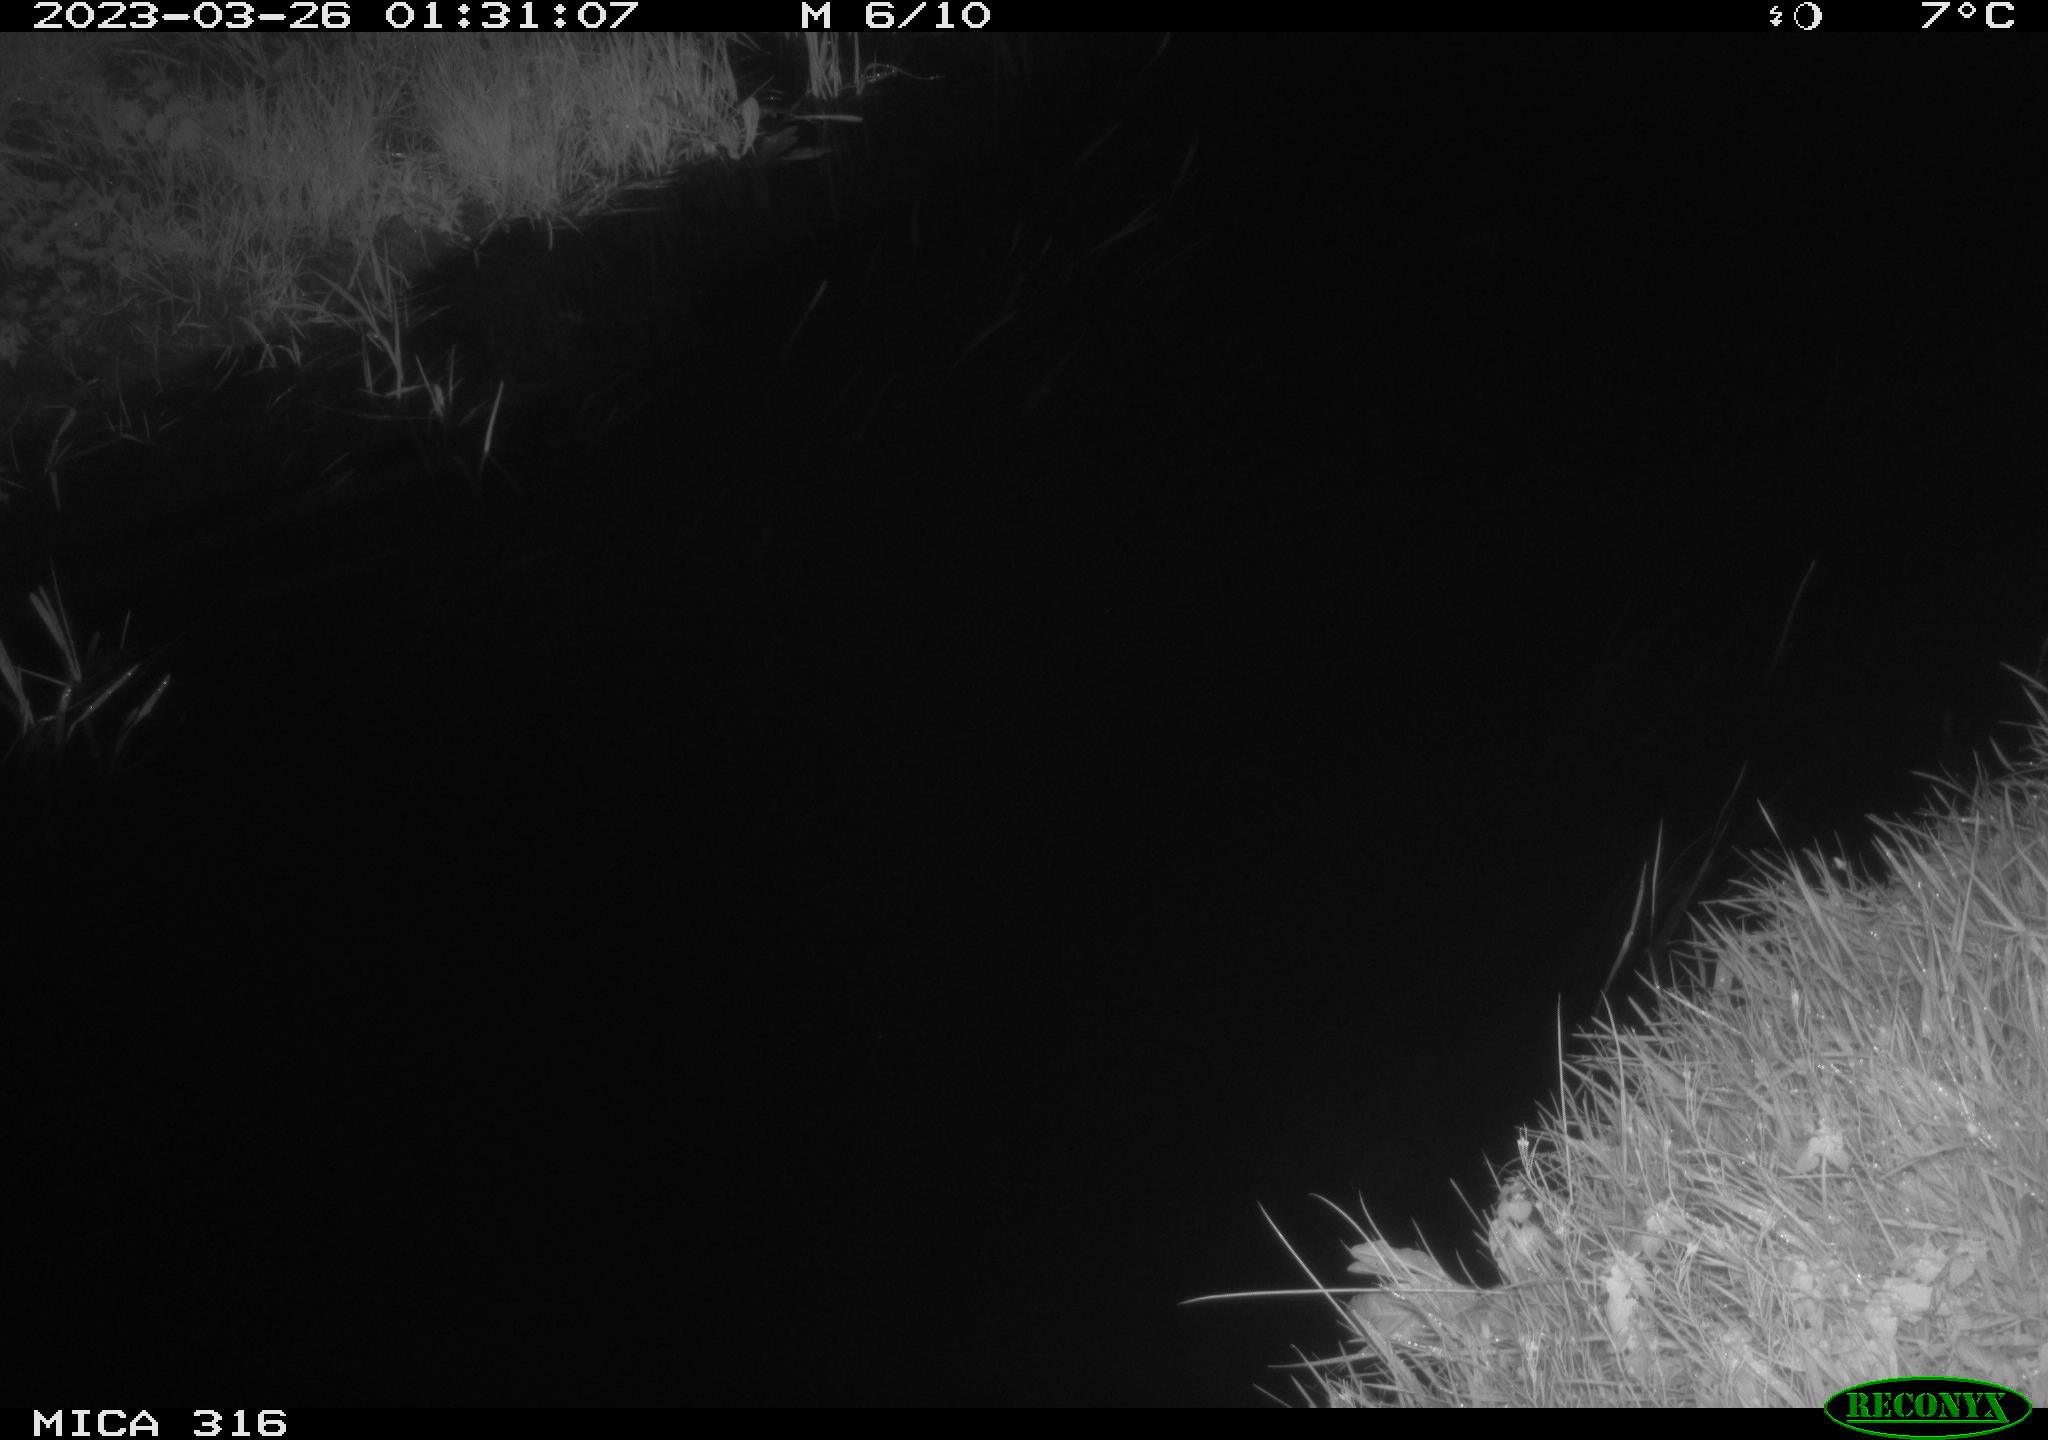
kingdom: Animalia
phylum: Chordata
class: Mammalia
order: Rodentia
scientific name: Rodentia
